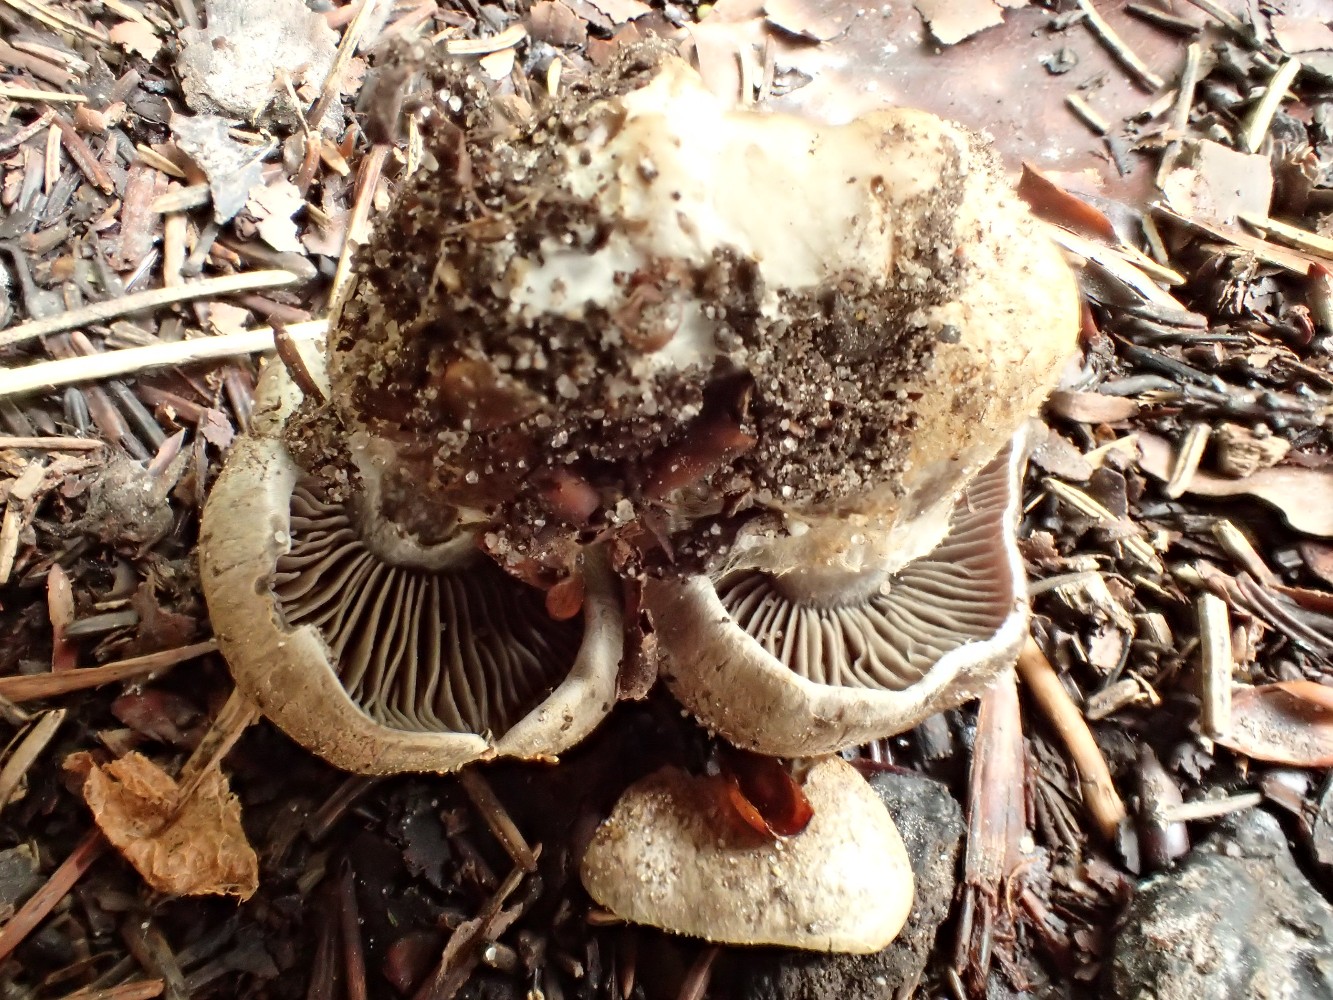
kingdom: Fungi
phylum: Basidiomycota
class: Agaricomycetes
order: Agaricales
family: Cortinariaceae
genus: Cortinarius
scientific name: Cortinarius
